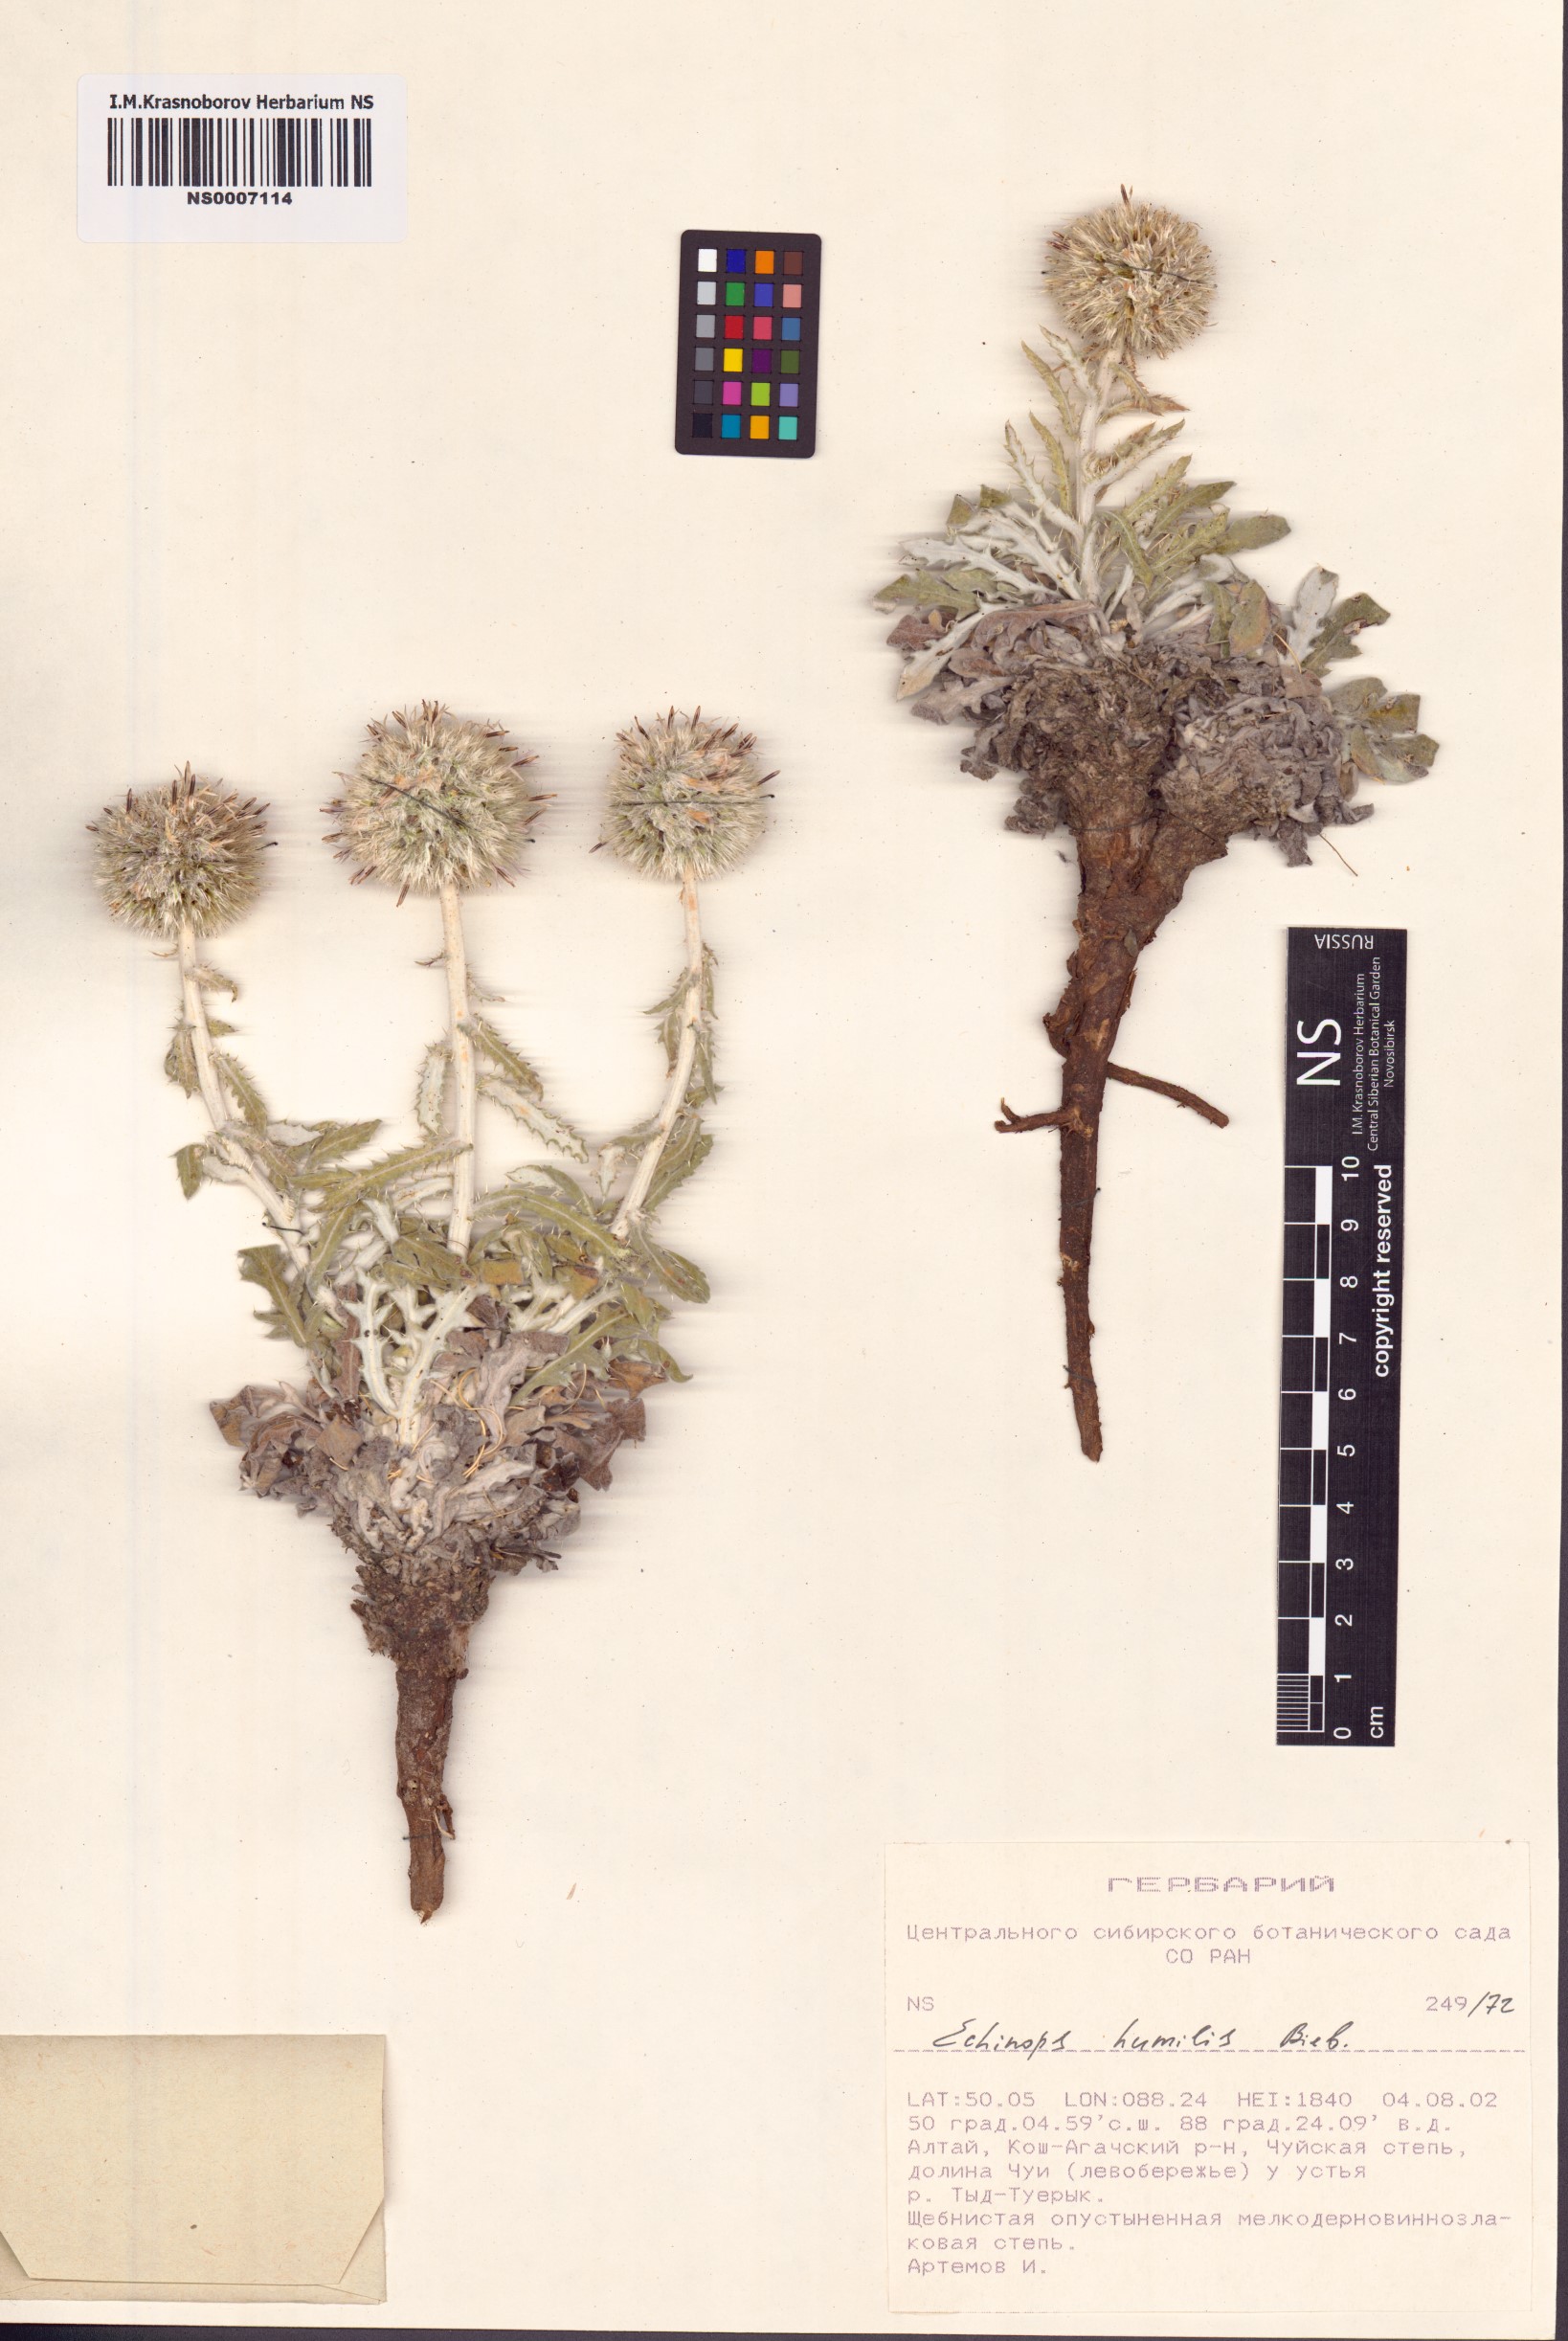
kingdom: Plantae
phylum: Tracheophyta
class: Magnoliopsida
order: Asterales
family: Asteraceae
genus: Echinops
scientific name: Echinops humilis
